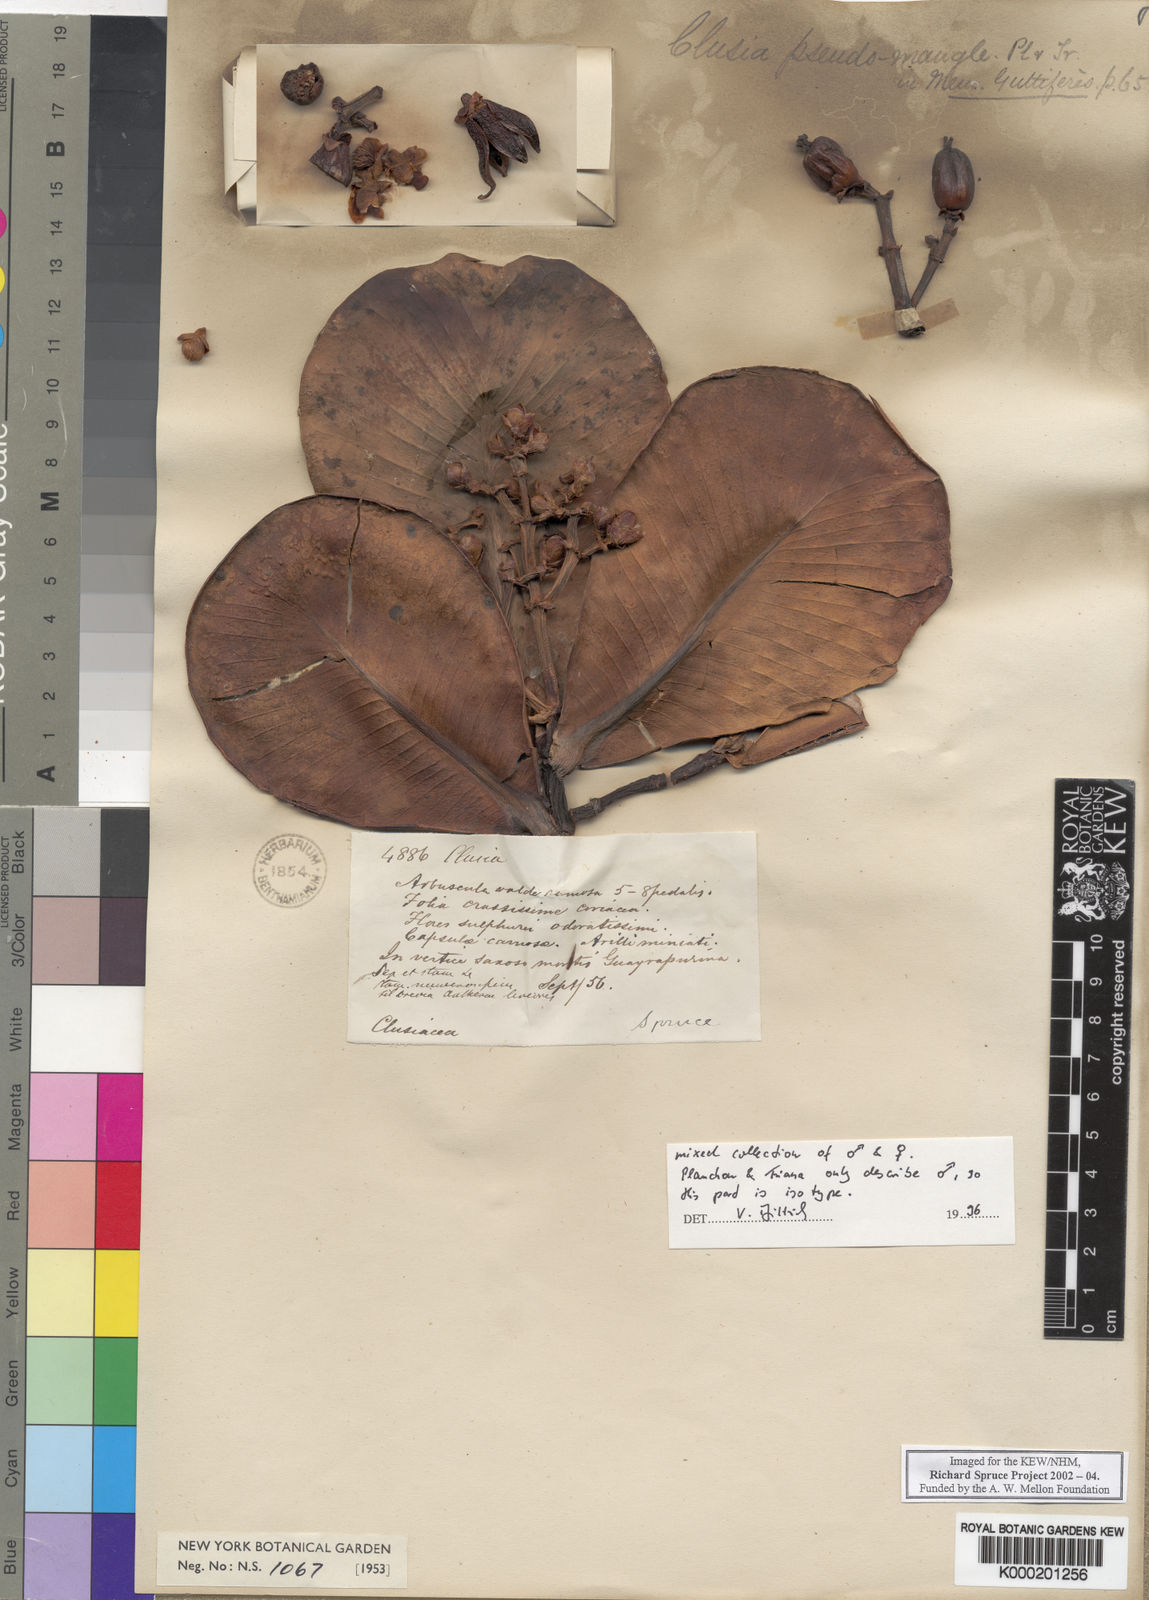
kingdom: Plantae
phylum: Tracheophyta
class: Magnoliopsida
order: Malpighiales
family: Clusiaceae
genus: Clusia
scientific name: Clusia pseudomangle
